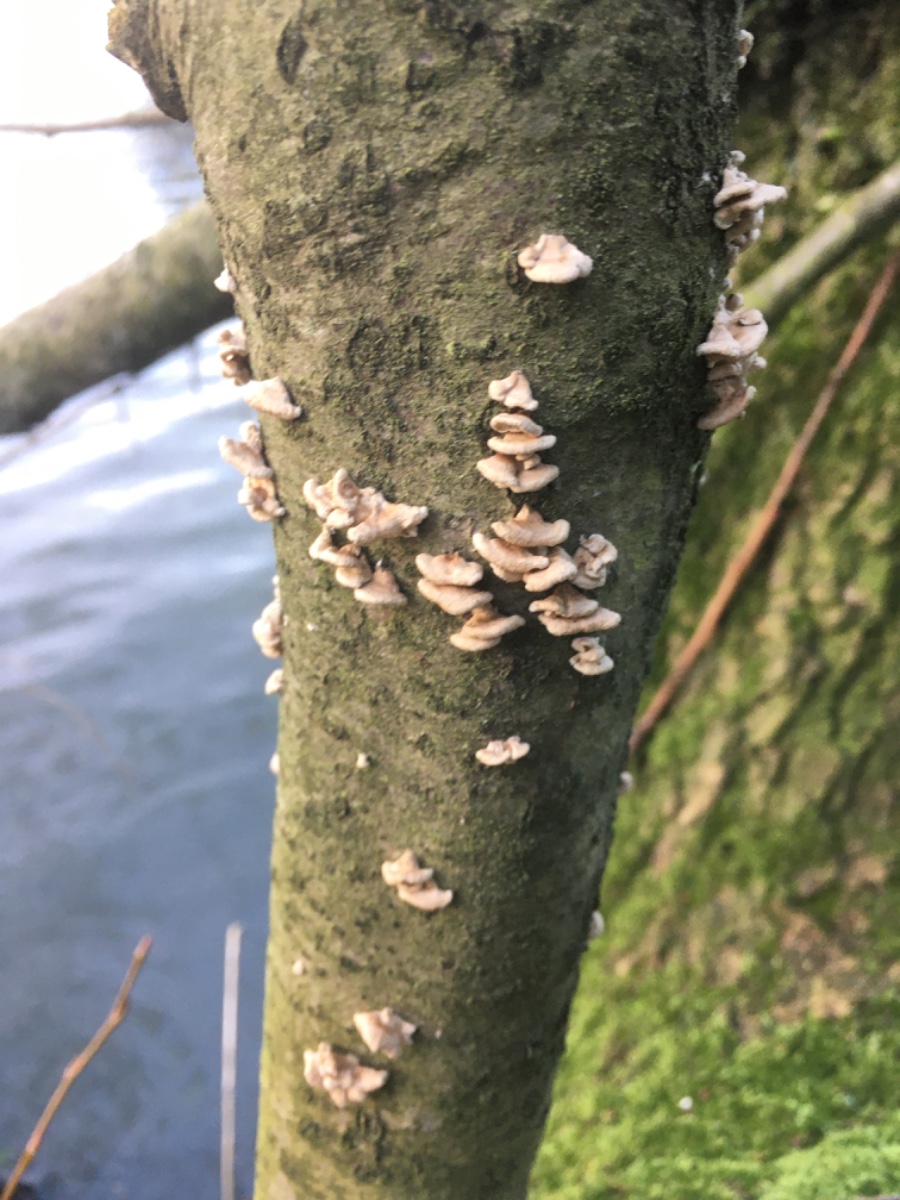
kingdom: Fungi
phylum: Basidiomycota
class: Agaricomycetes
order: Amylocorticiales
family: Amylocorticiaceae
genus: Plicaturopsis
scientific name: Plicaturopsis crispa
